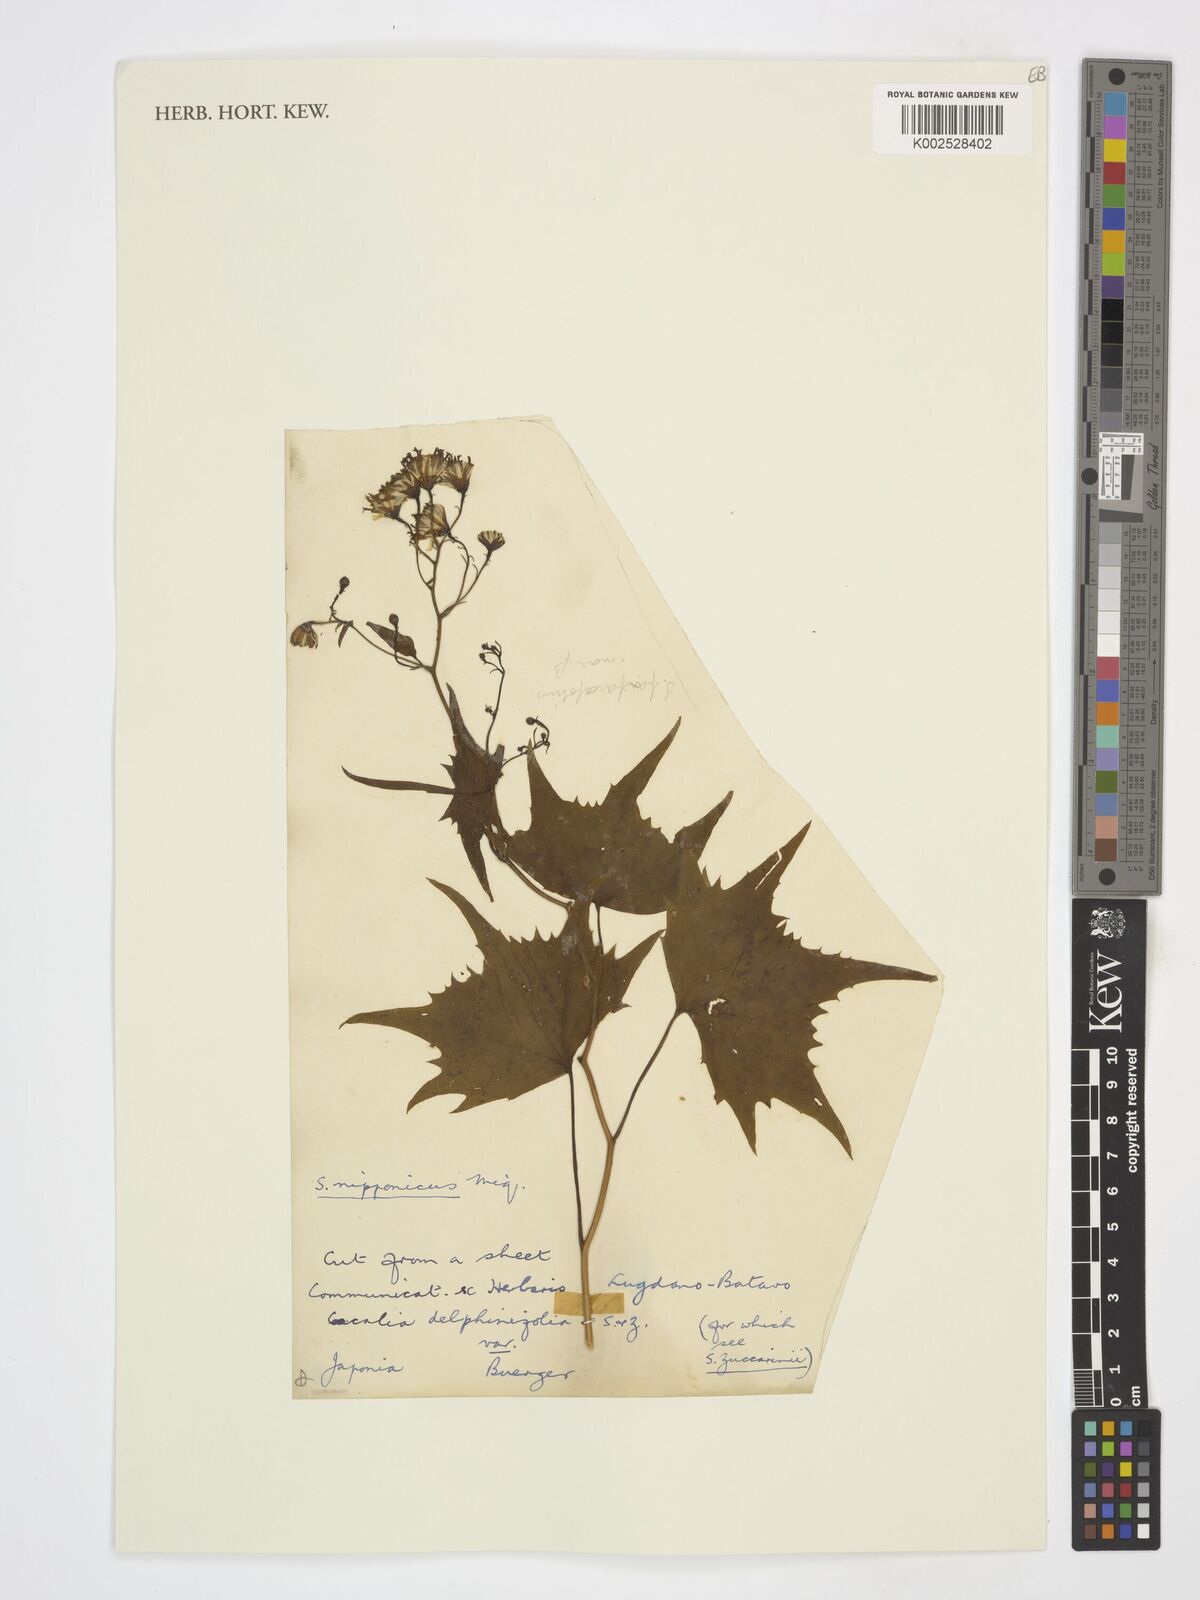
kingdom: Plantae
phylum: Tracheophyta
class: Magnoliopsida
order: Asterales
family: Asteraceae
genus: Parasenecio
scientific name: Parasenecio
